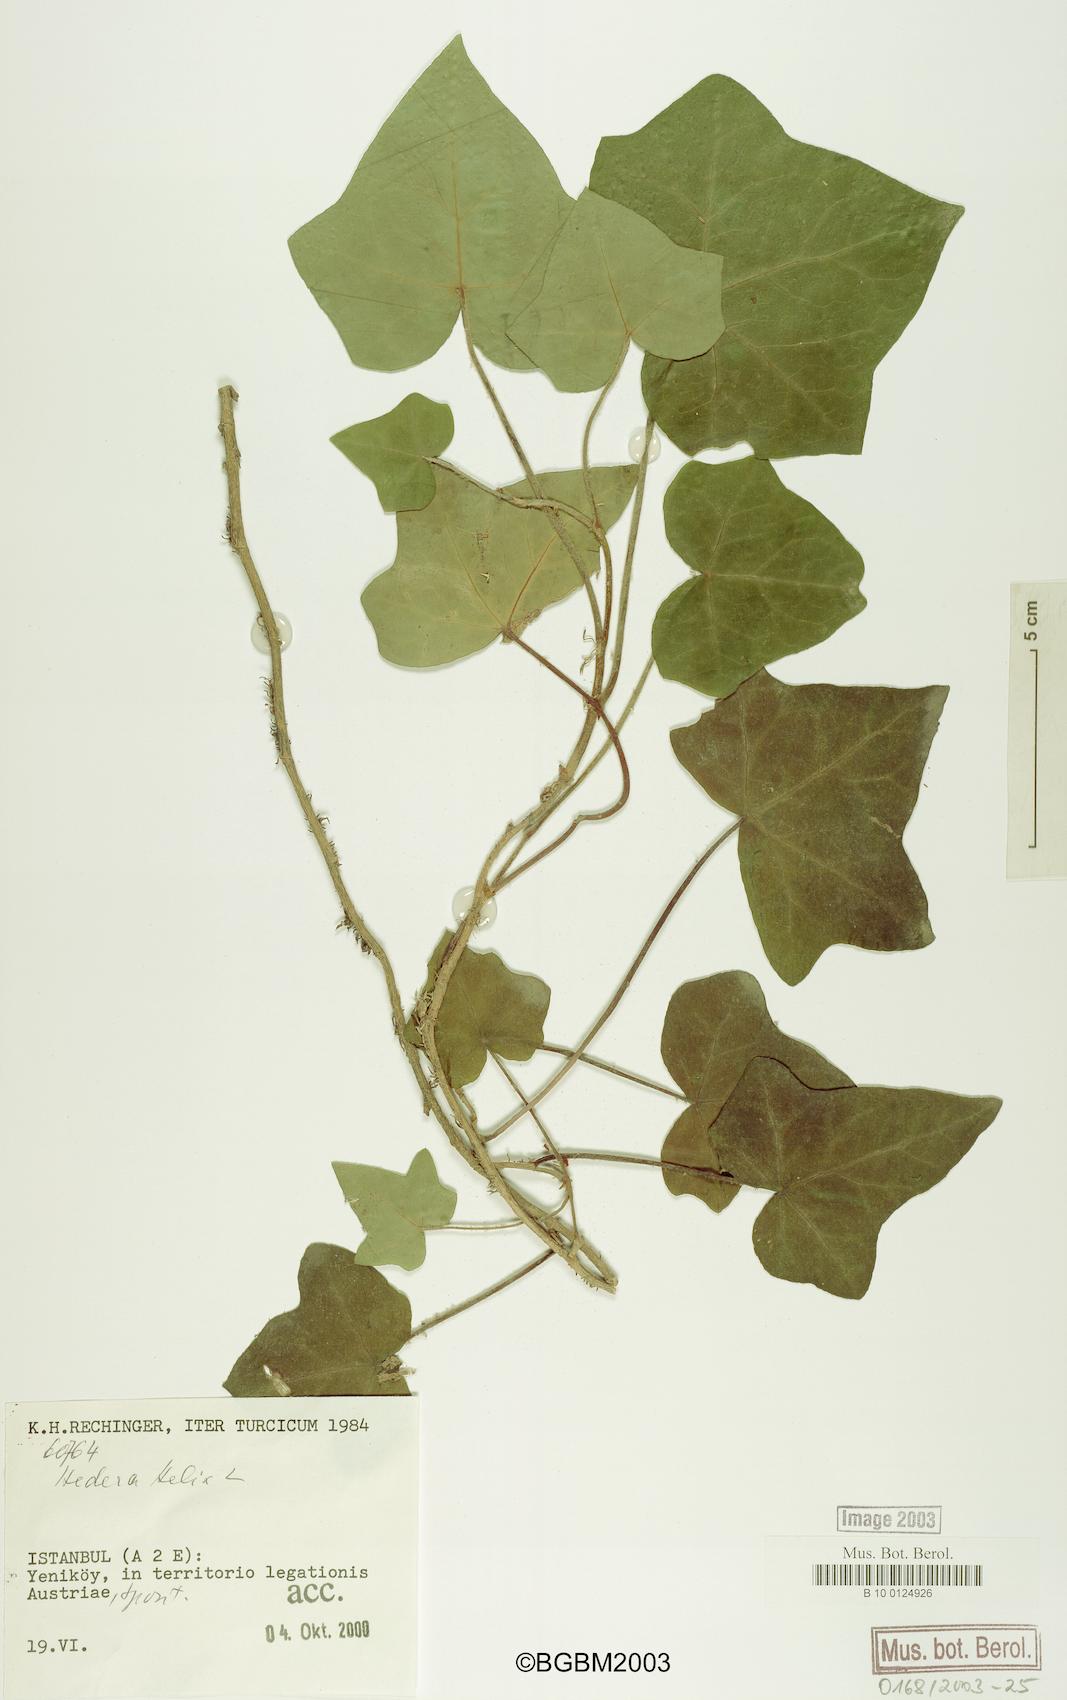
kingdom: Plantae
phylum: Tracheophyta
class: Magnoliopsida
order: Apiales
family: Araliaceae
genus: Hedera
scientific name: Hedera helix
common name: Ivy
